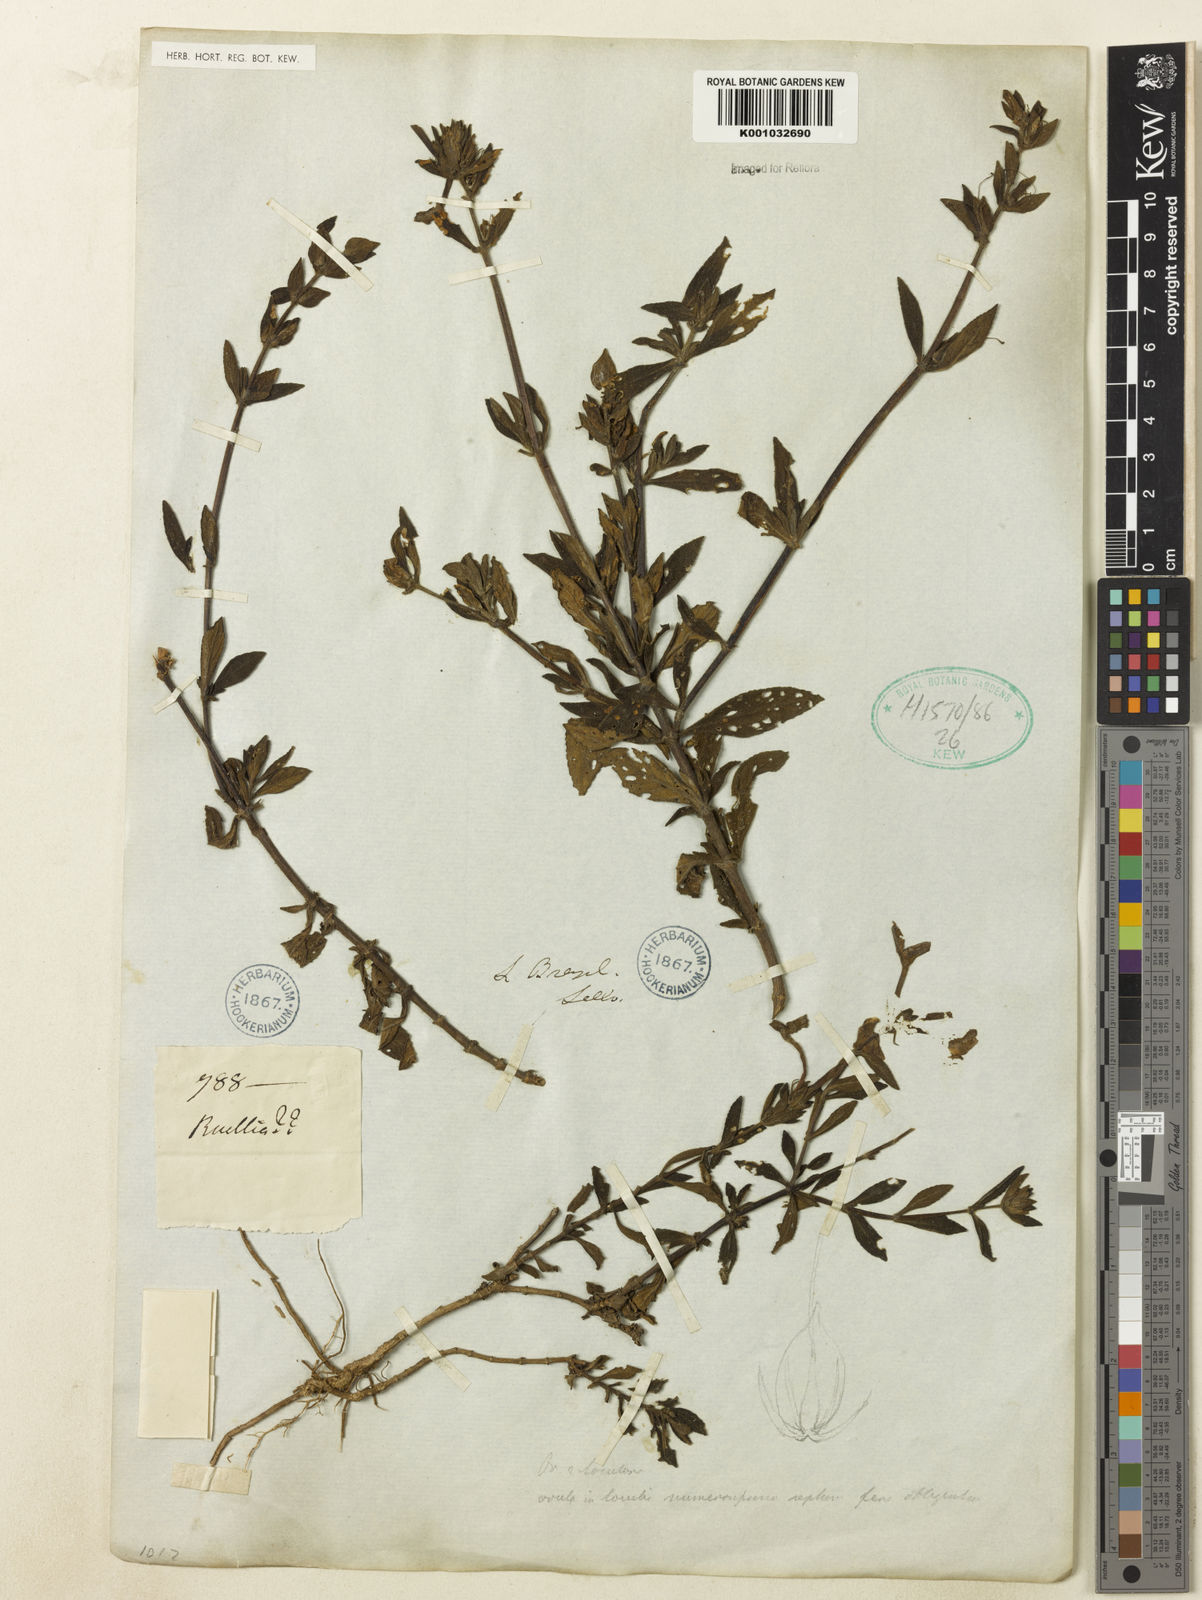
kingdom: Plantae
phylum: Tracheophyta
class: Magnoliopsida
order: Lamiales
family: Acanthaceae
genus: Ruellia
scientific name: Ruellia
